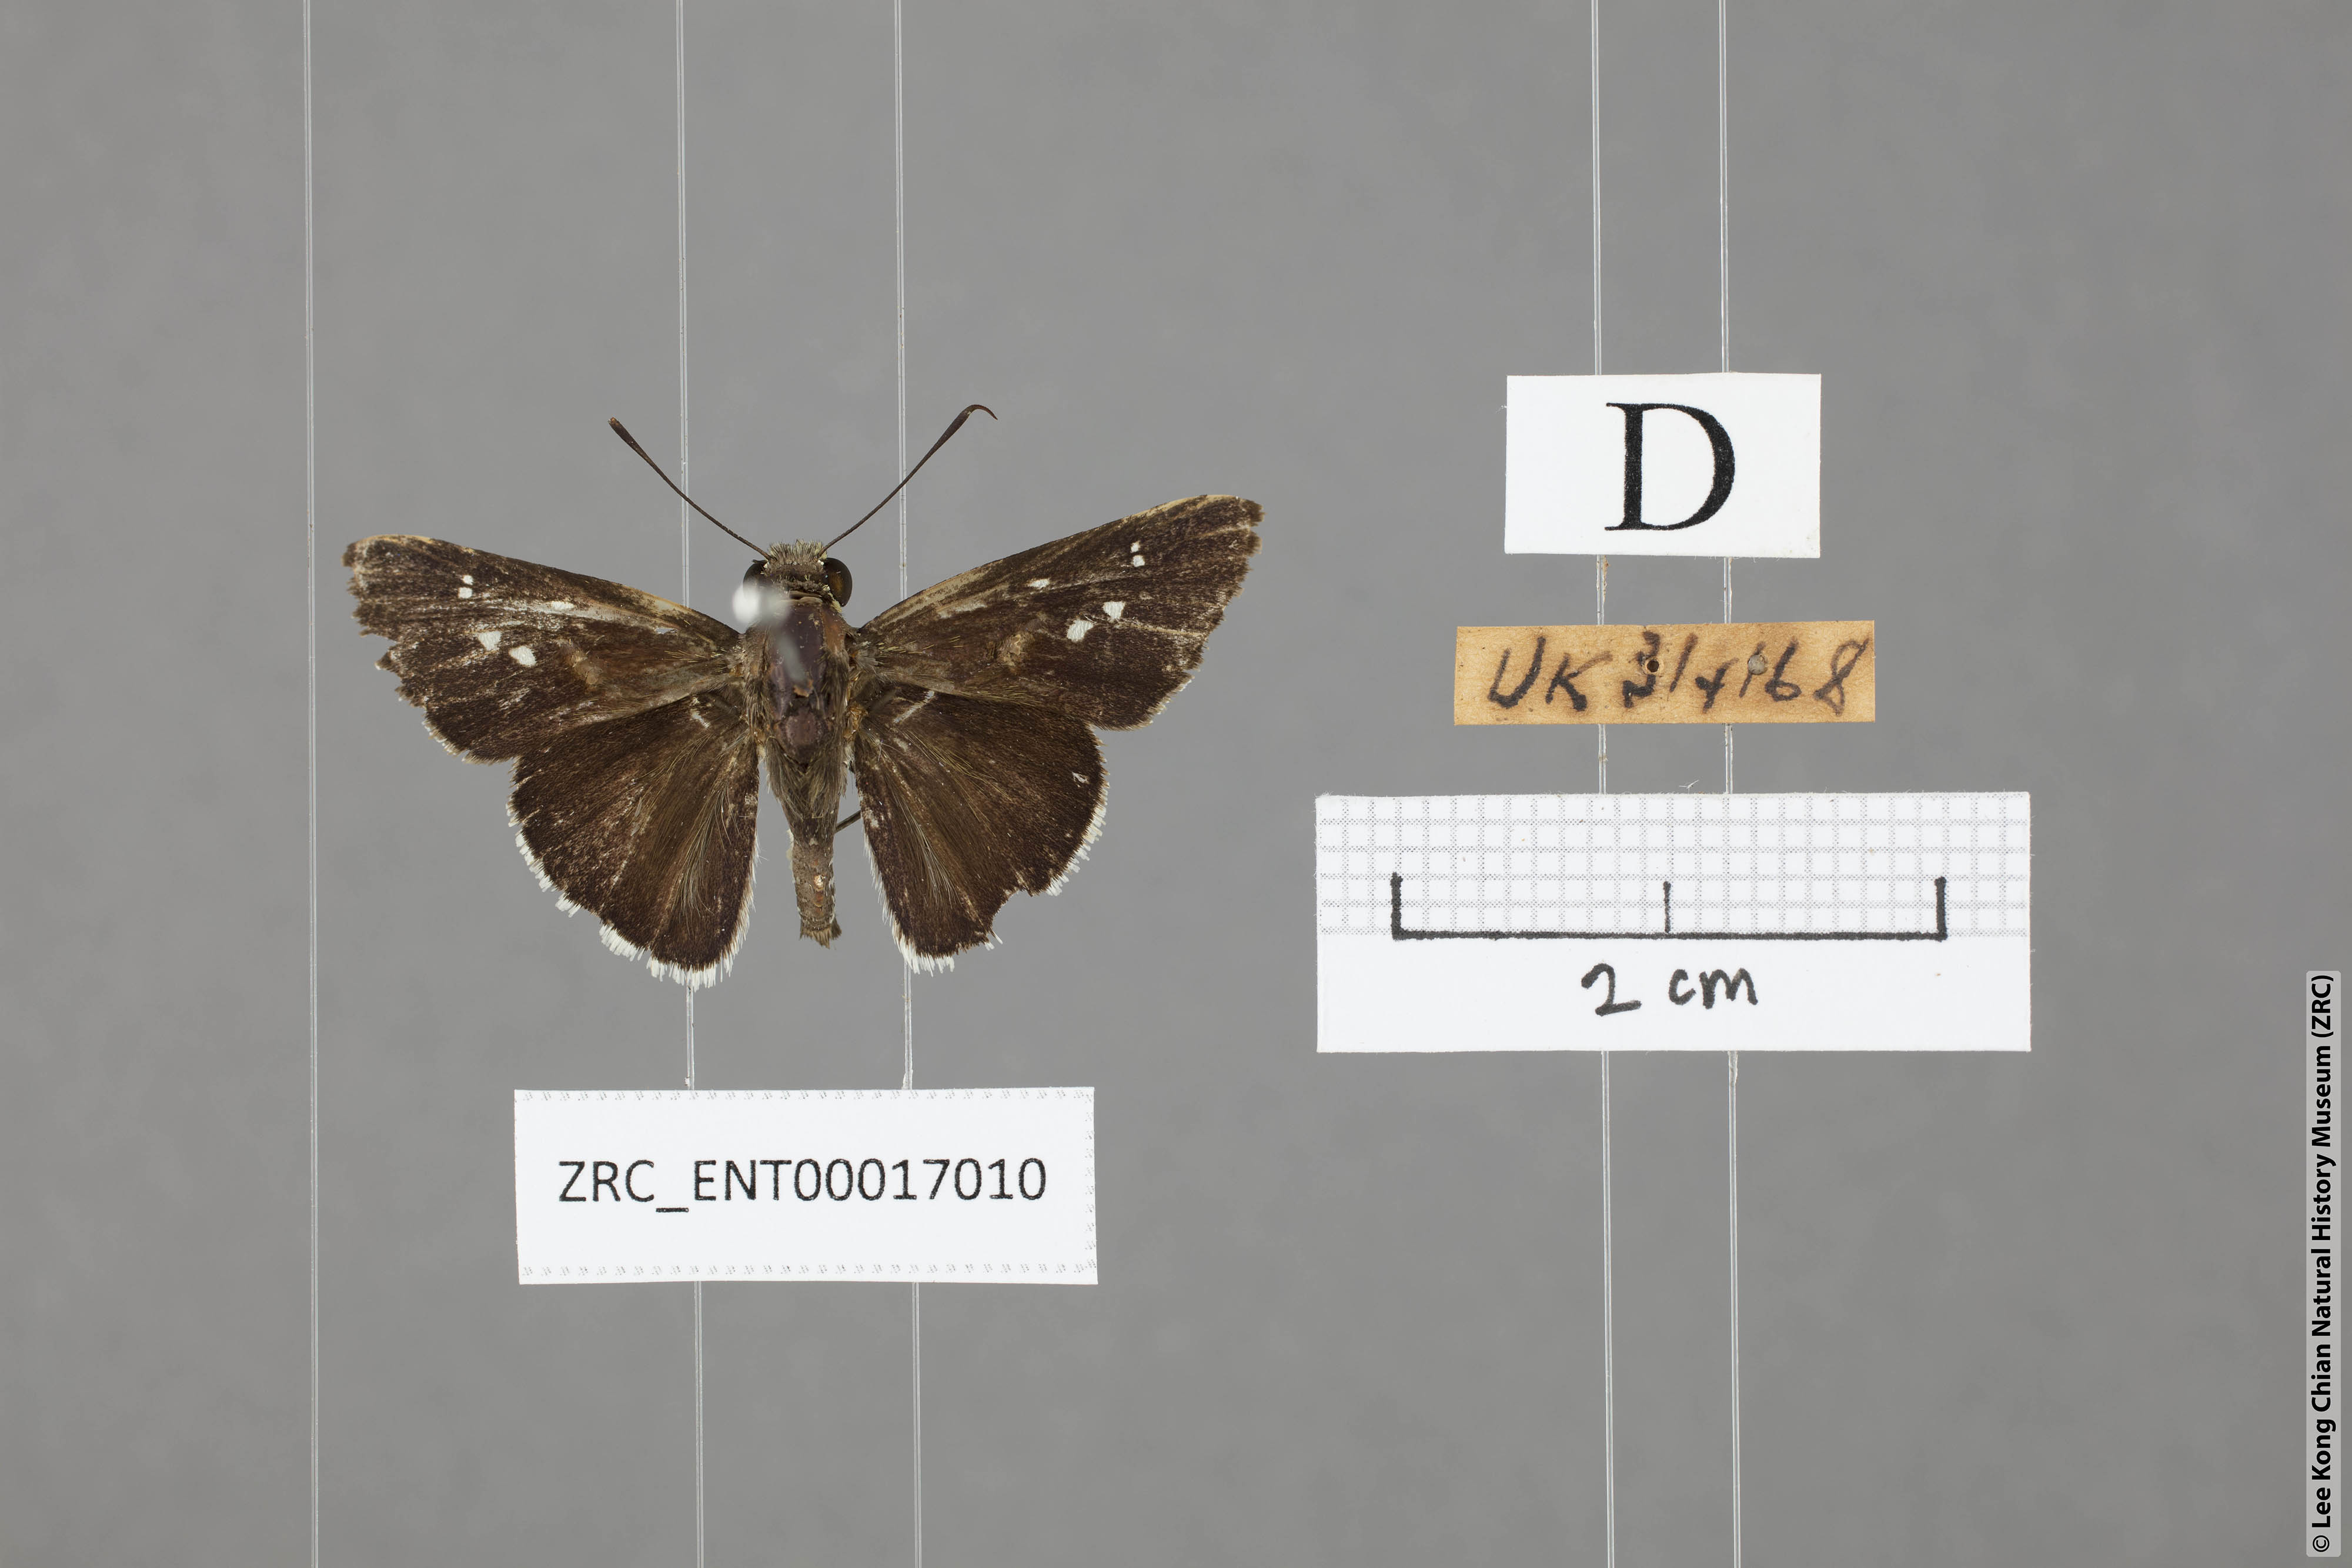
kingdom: Animalia
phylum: Arthropoda
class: Insecta
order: Lepidoptera
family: Hesperiidae
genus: Halpe
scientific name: Halpe insignis
